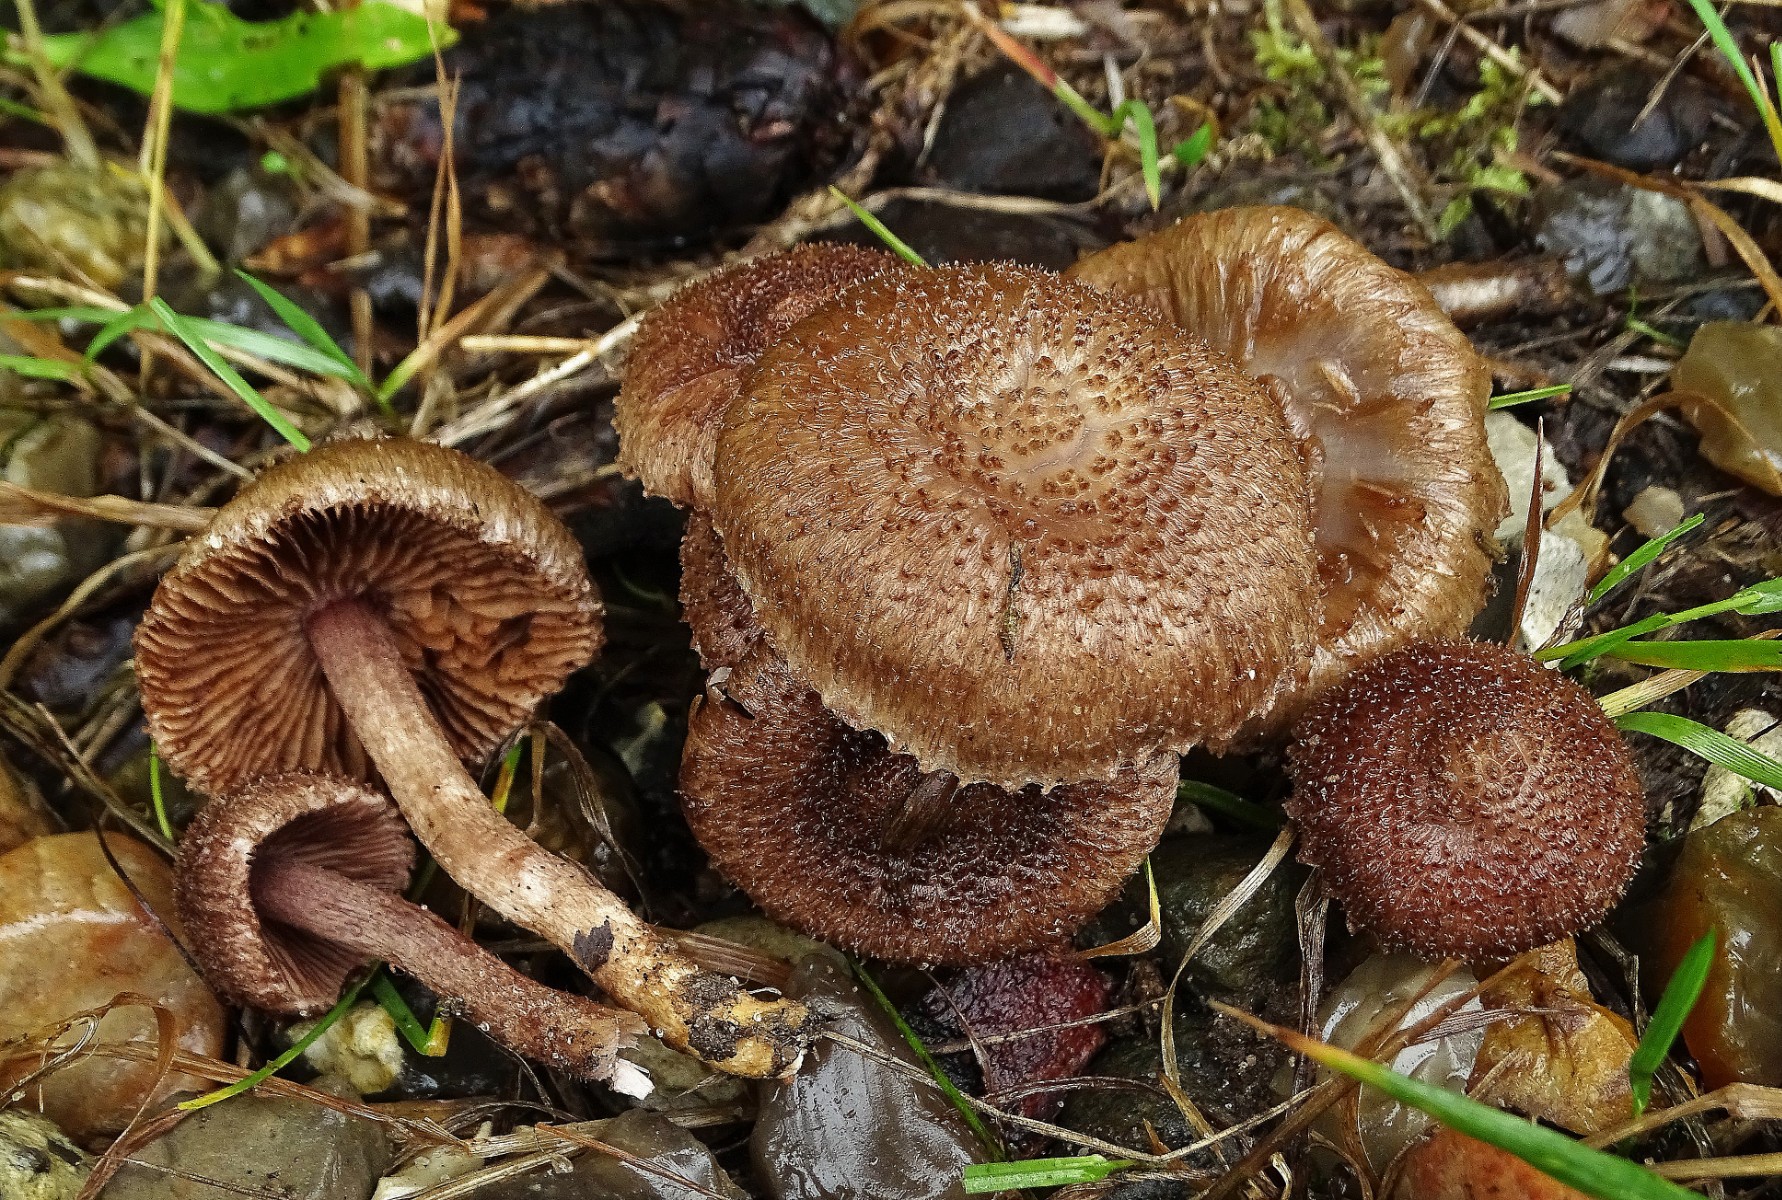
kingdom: Fungi
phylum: Basidiomycota
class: Agaricomycetes
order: Agaricales
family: Inocybaceae
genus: Inocybe
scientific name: Inocybe cincinnata
